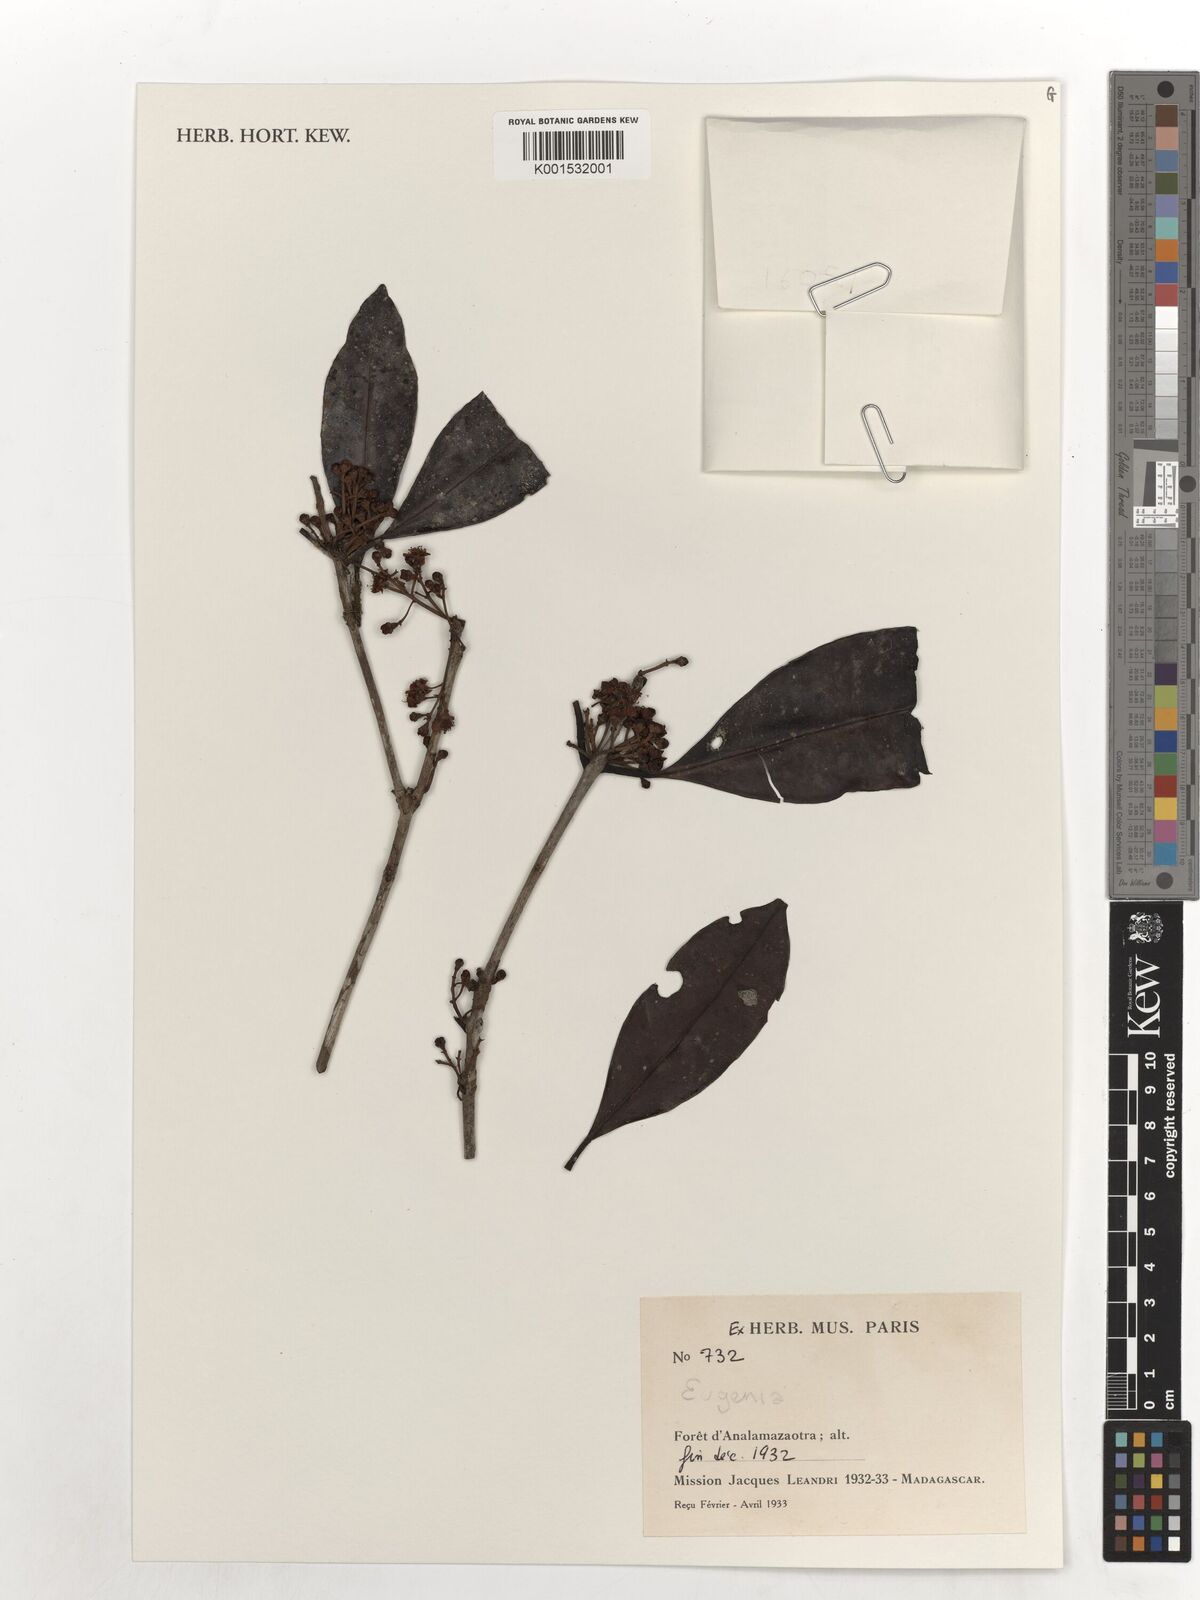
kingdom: Plantae
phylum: Tracheophyta
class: Magnoliopsida
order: Myrtales
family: Myrtaceae
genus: Eugenia
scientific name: Eugenia
